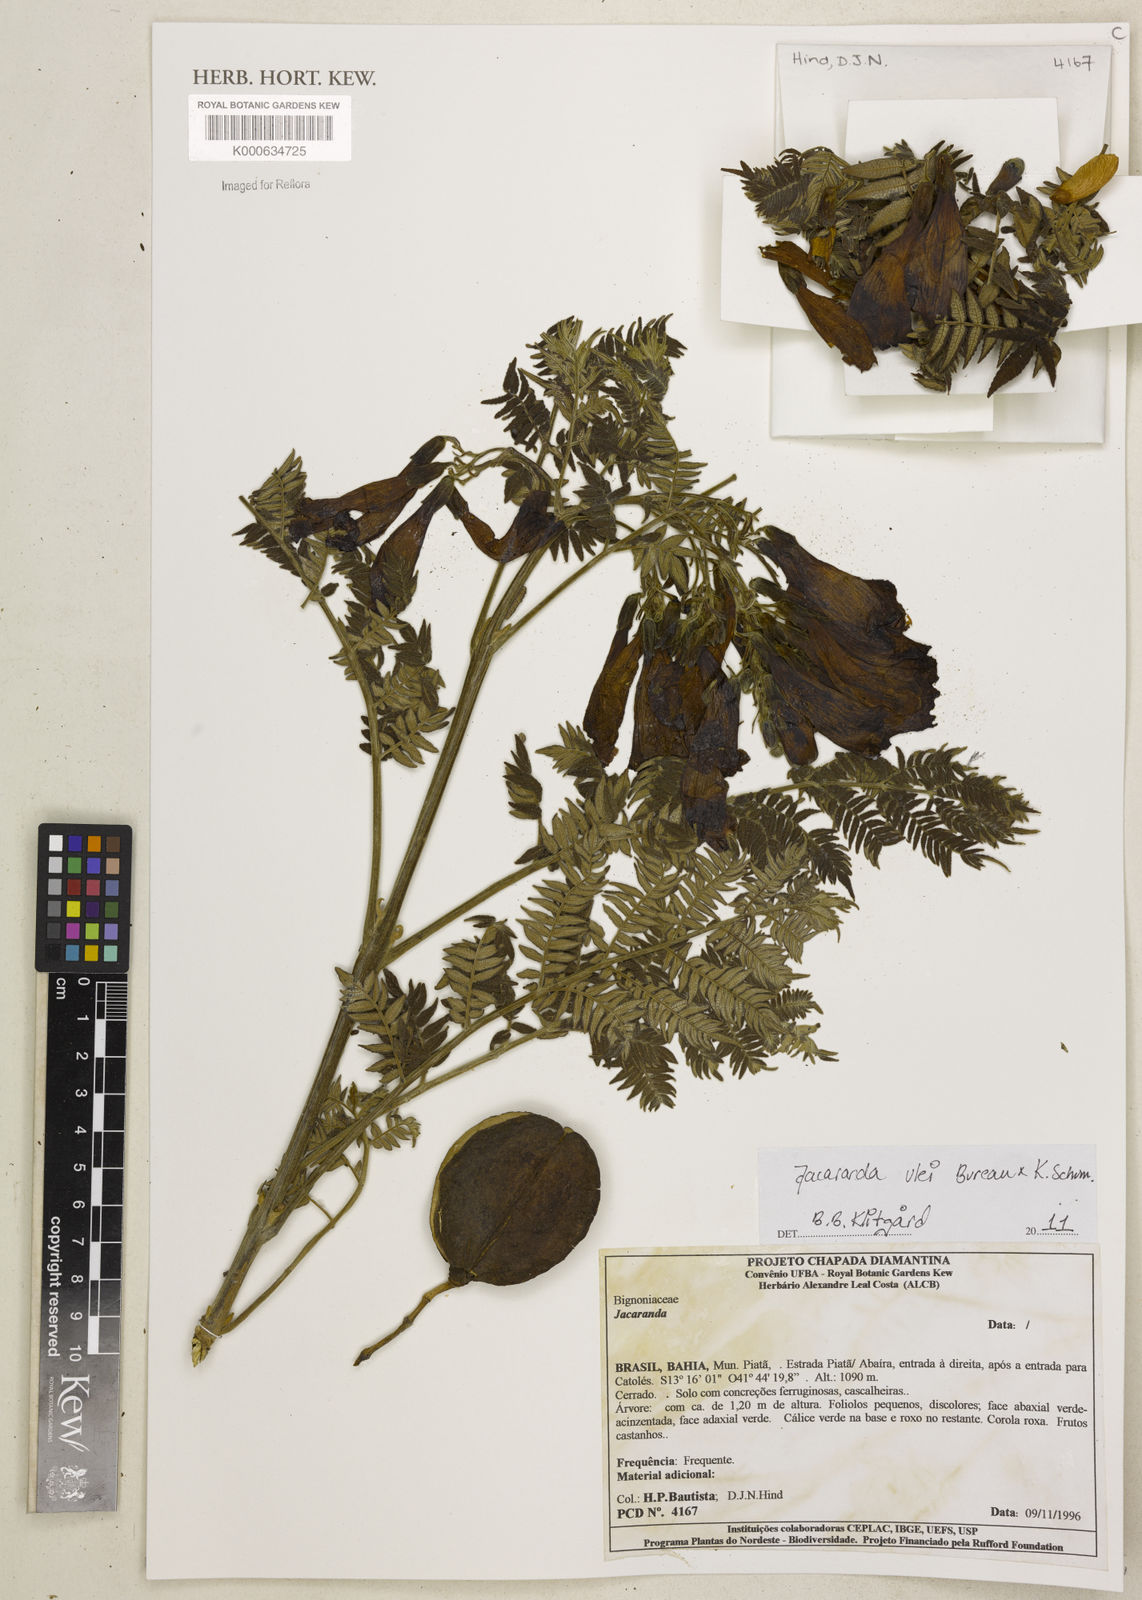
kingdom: Plantae
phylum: Tracheophyta
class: Magnoliopsida
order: Lamiales
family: Bignoniaceae
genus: Jacaranda
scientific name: Jacaranda ulei
